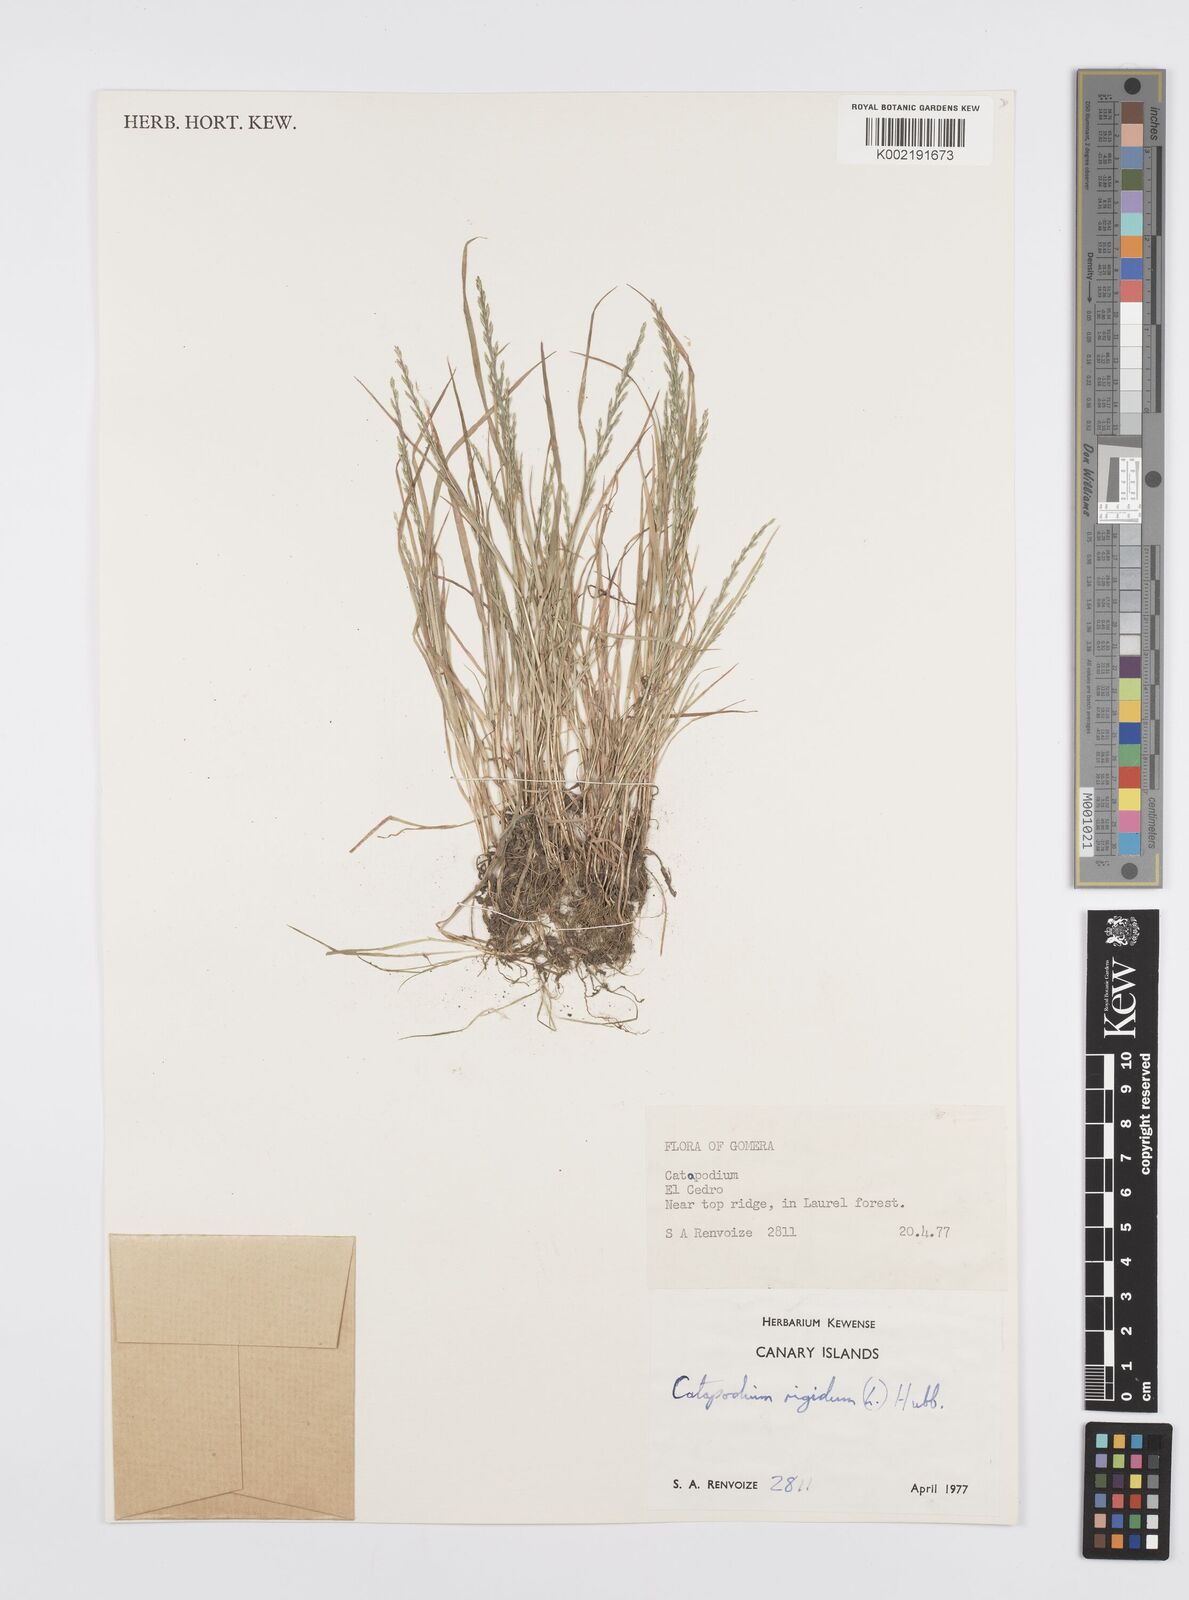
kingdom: Plantae
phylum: Tracheophyta
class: Liliopsida
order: Poales
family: Poaceae
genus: Catapodium
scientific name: Catapodium rigidum
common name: Fern-grass
